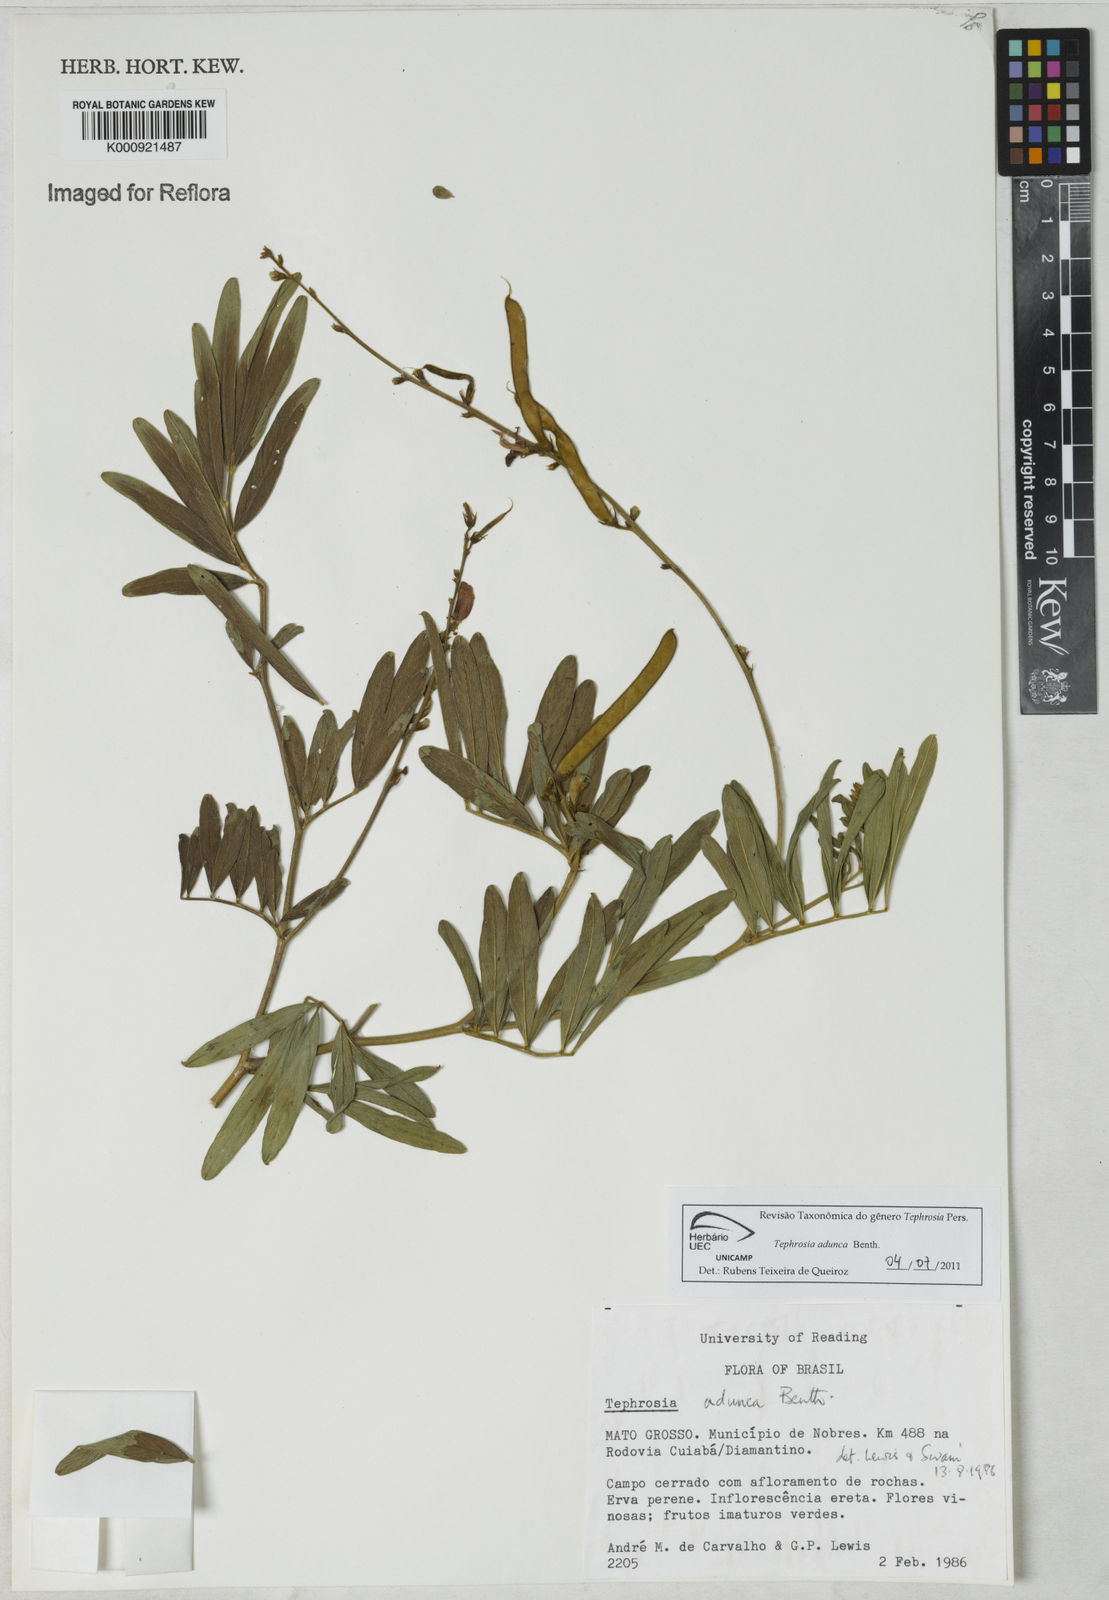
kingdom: Plantae
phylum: Tracheophyta
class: Magnoliopsida
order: Fabales
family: Fabaceae
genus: Tephrosia
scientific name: Tephrosia adunca
